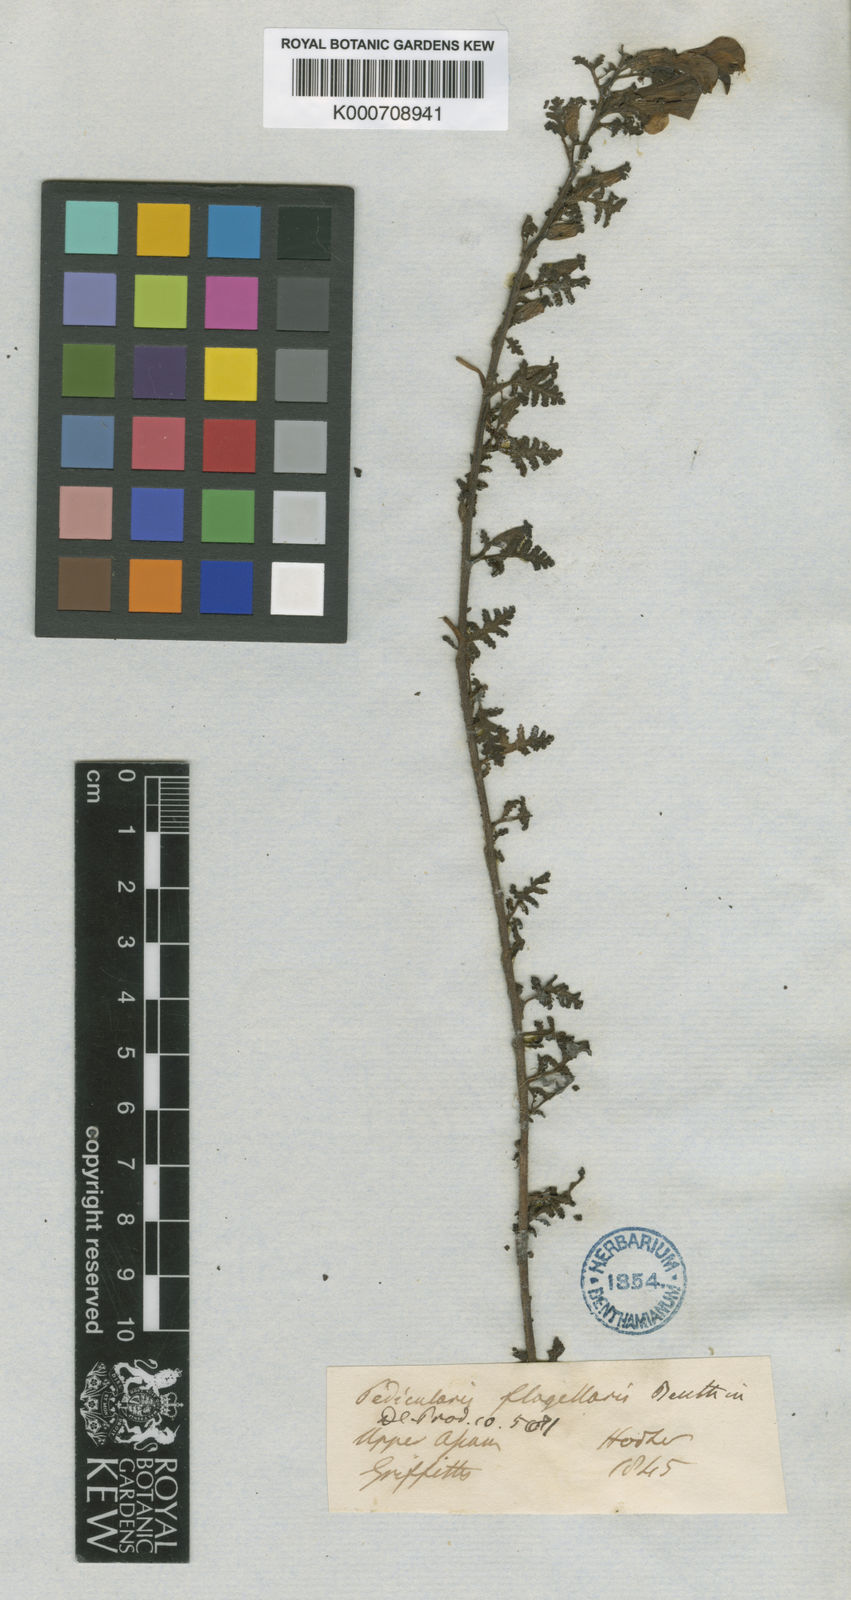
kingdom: Plantae
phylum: Tracheophyta
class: Magnoliopsida
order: Lamiales
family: Orobanchaceae
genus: Pedicularis
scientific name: Pedicularis flagellaris
